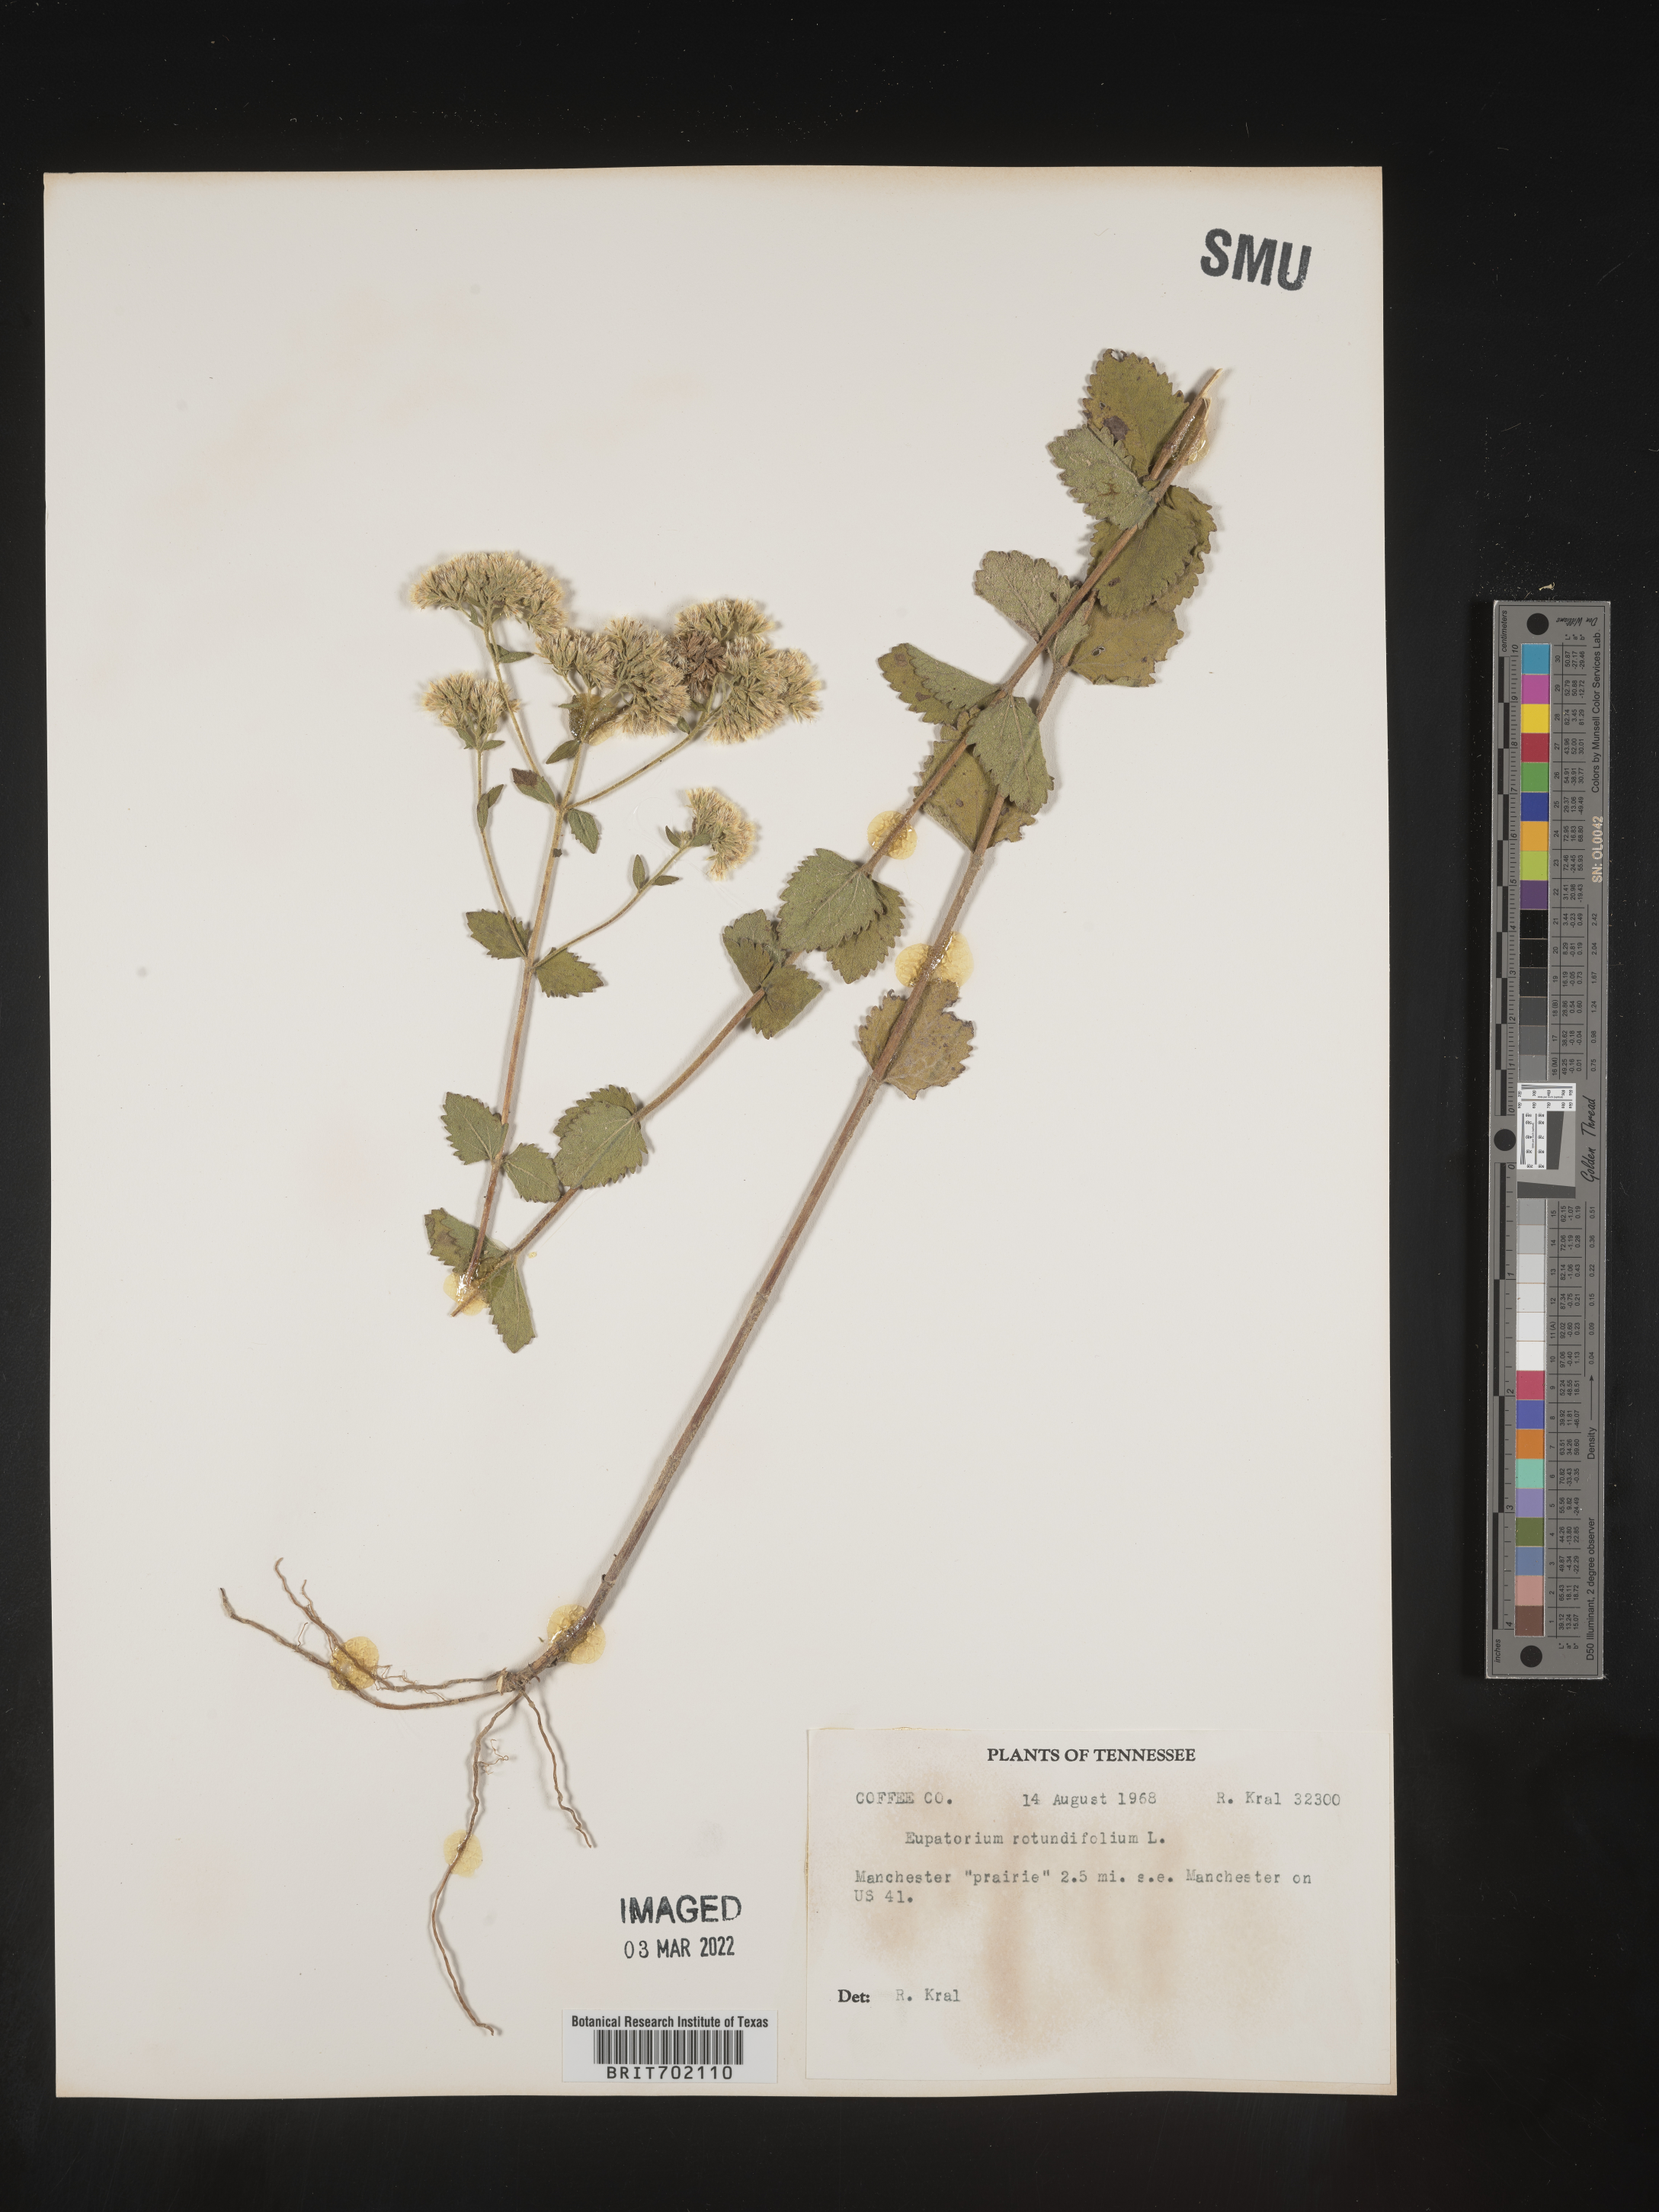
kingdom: Plantae
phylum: Tracheophyta
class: Magnoliopsida
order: Asterales
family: Asteraceae
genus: Eupatorium
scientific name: Eupatorium rotundifolium
